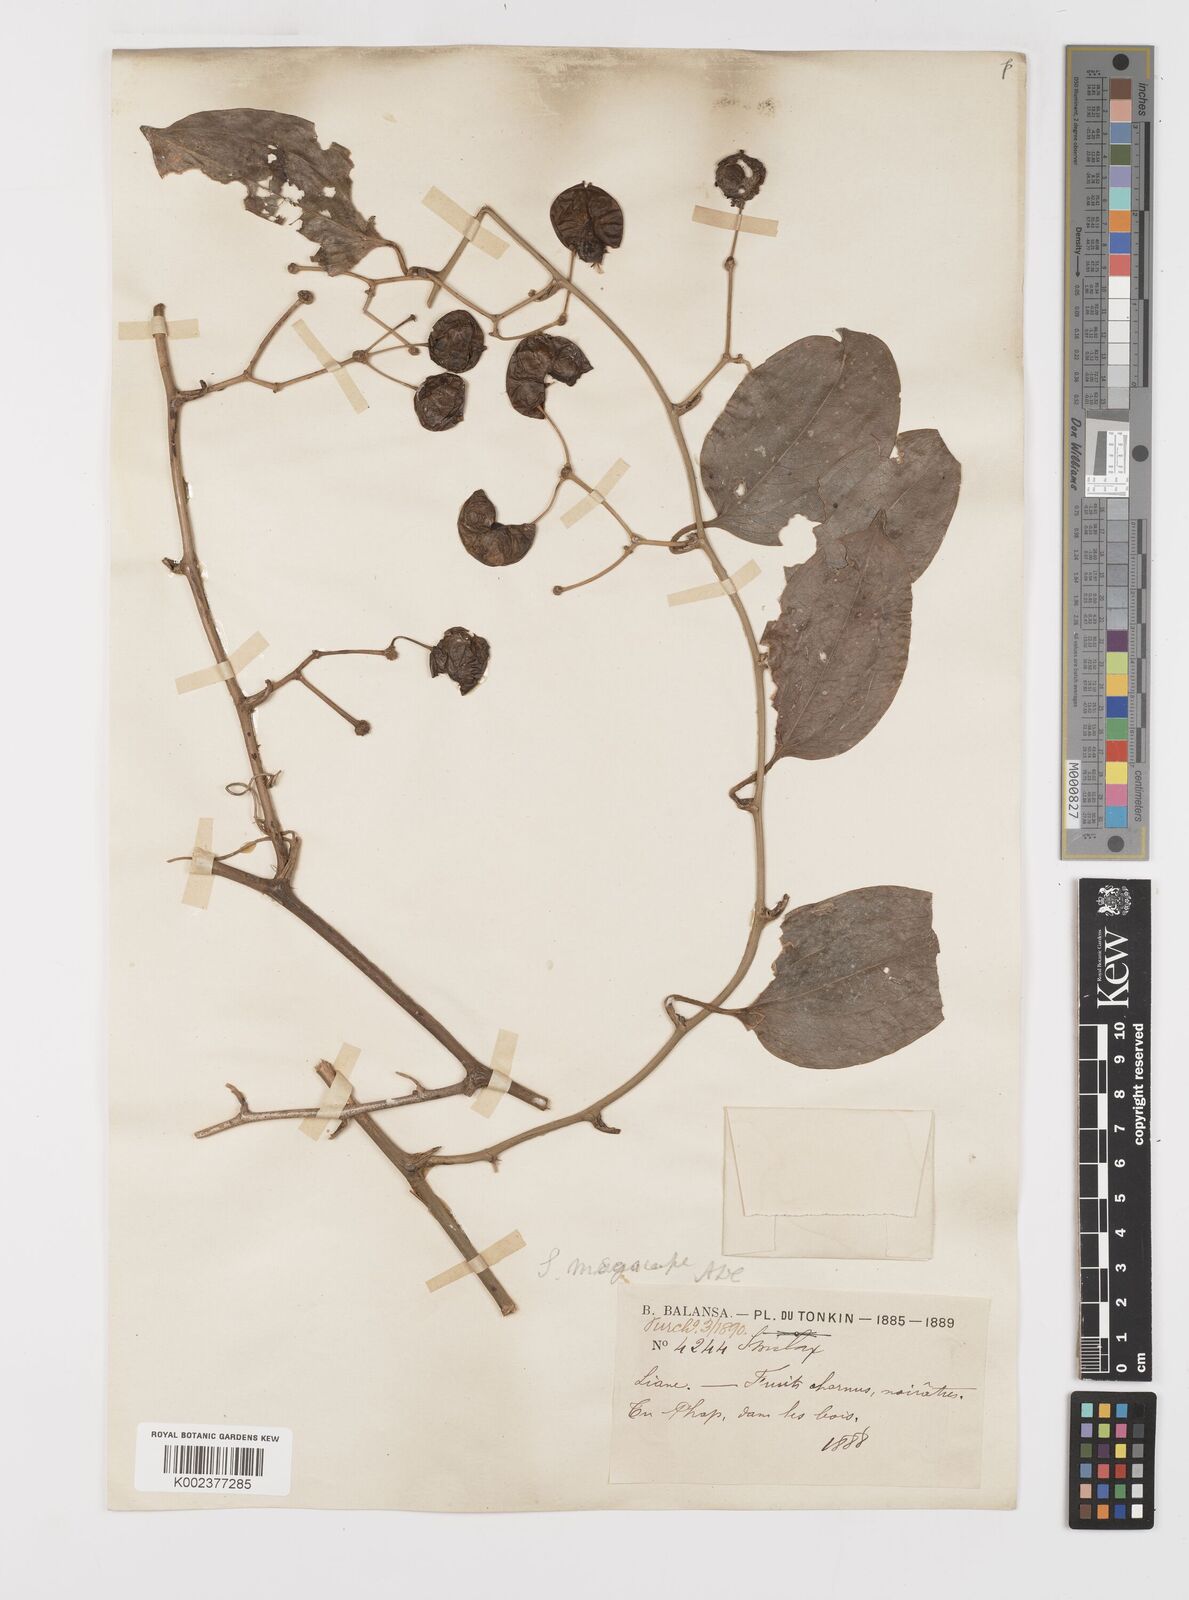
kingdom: Plantae
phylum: Tracheophyta
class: Liliopsida
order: Liliales
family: Smilacaceae
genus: Smilax
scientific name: Smilax megacarpa
